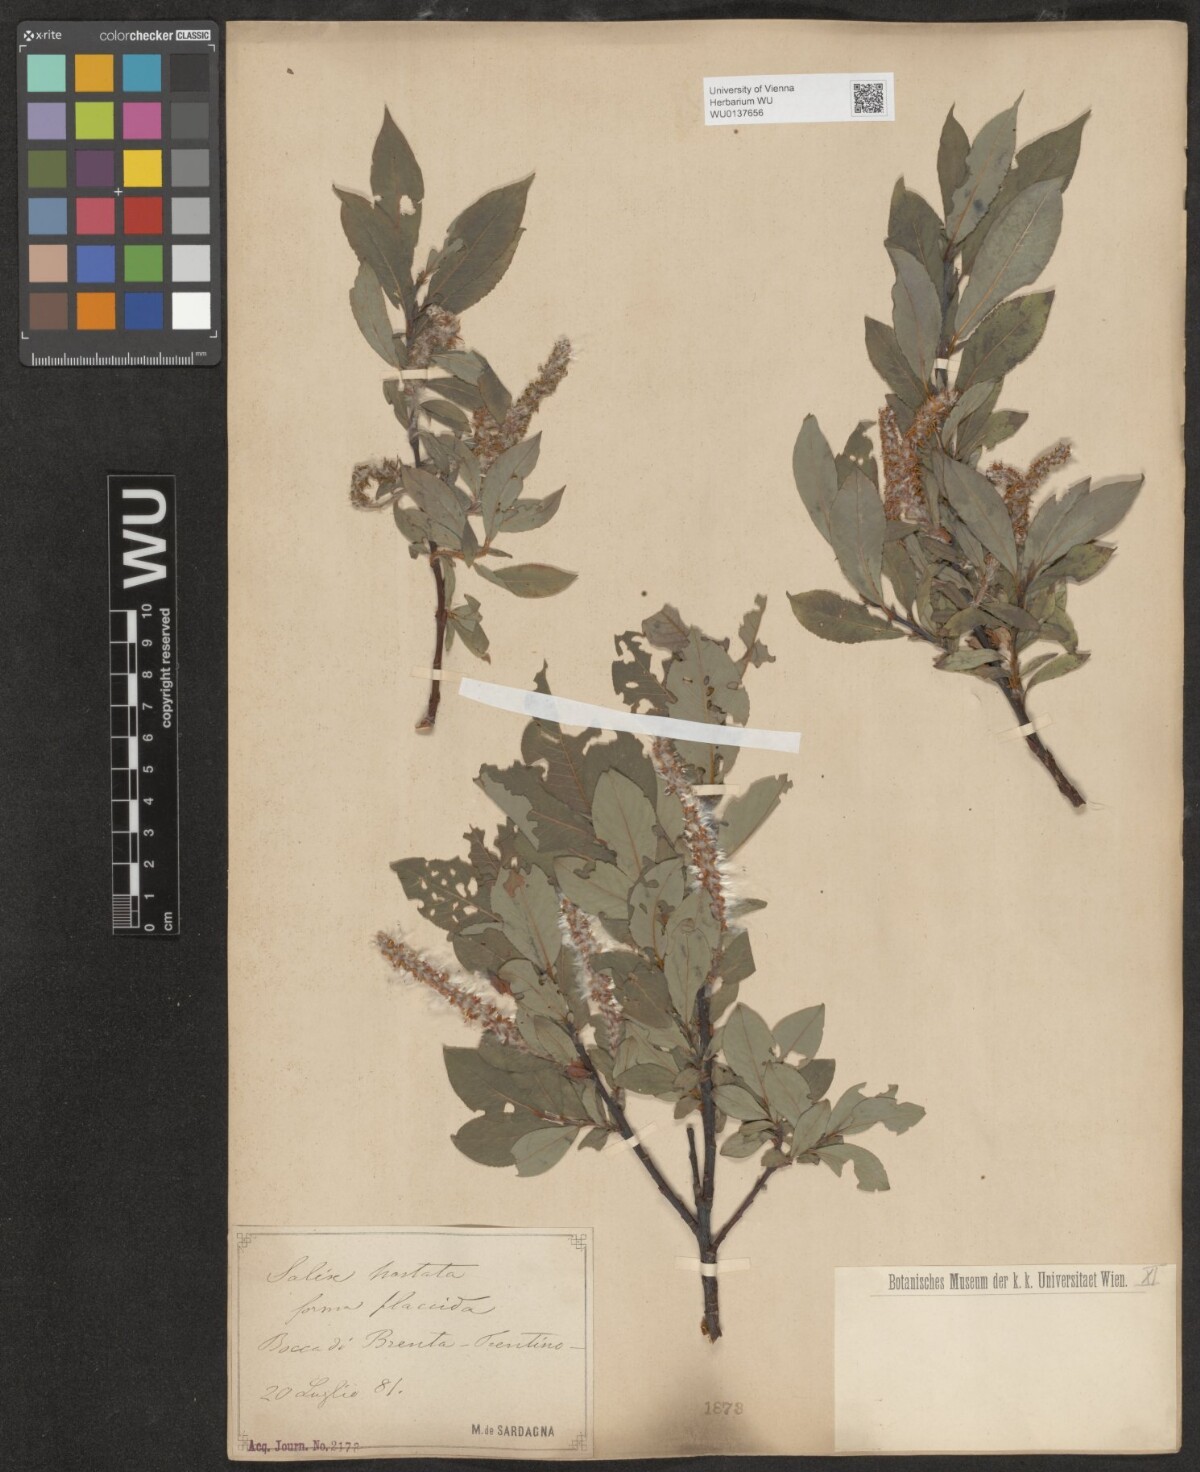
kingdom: Plantae
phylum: Tracheophyta
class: Magnoliopsida
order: Malpighiales
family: Salicaceae
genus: Salix
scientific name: Salix hastata
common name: Halberd willow
